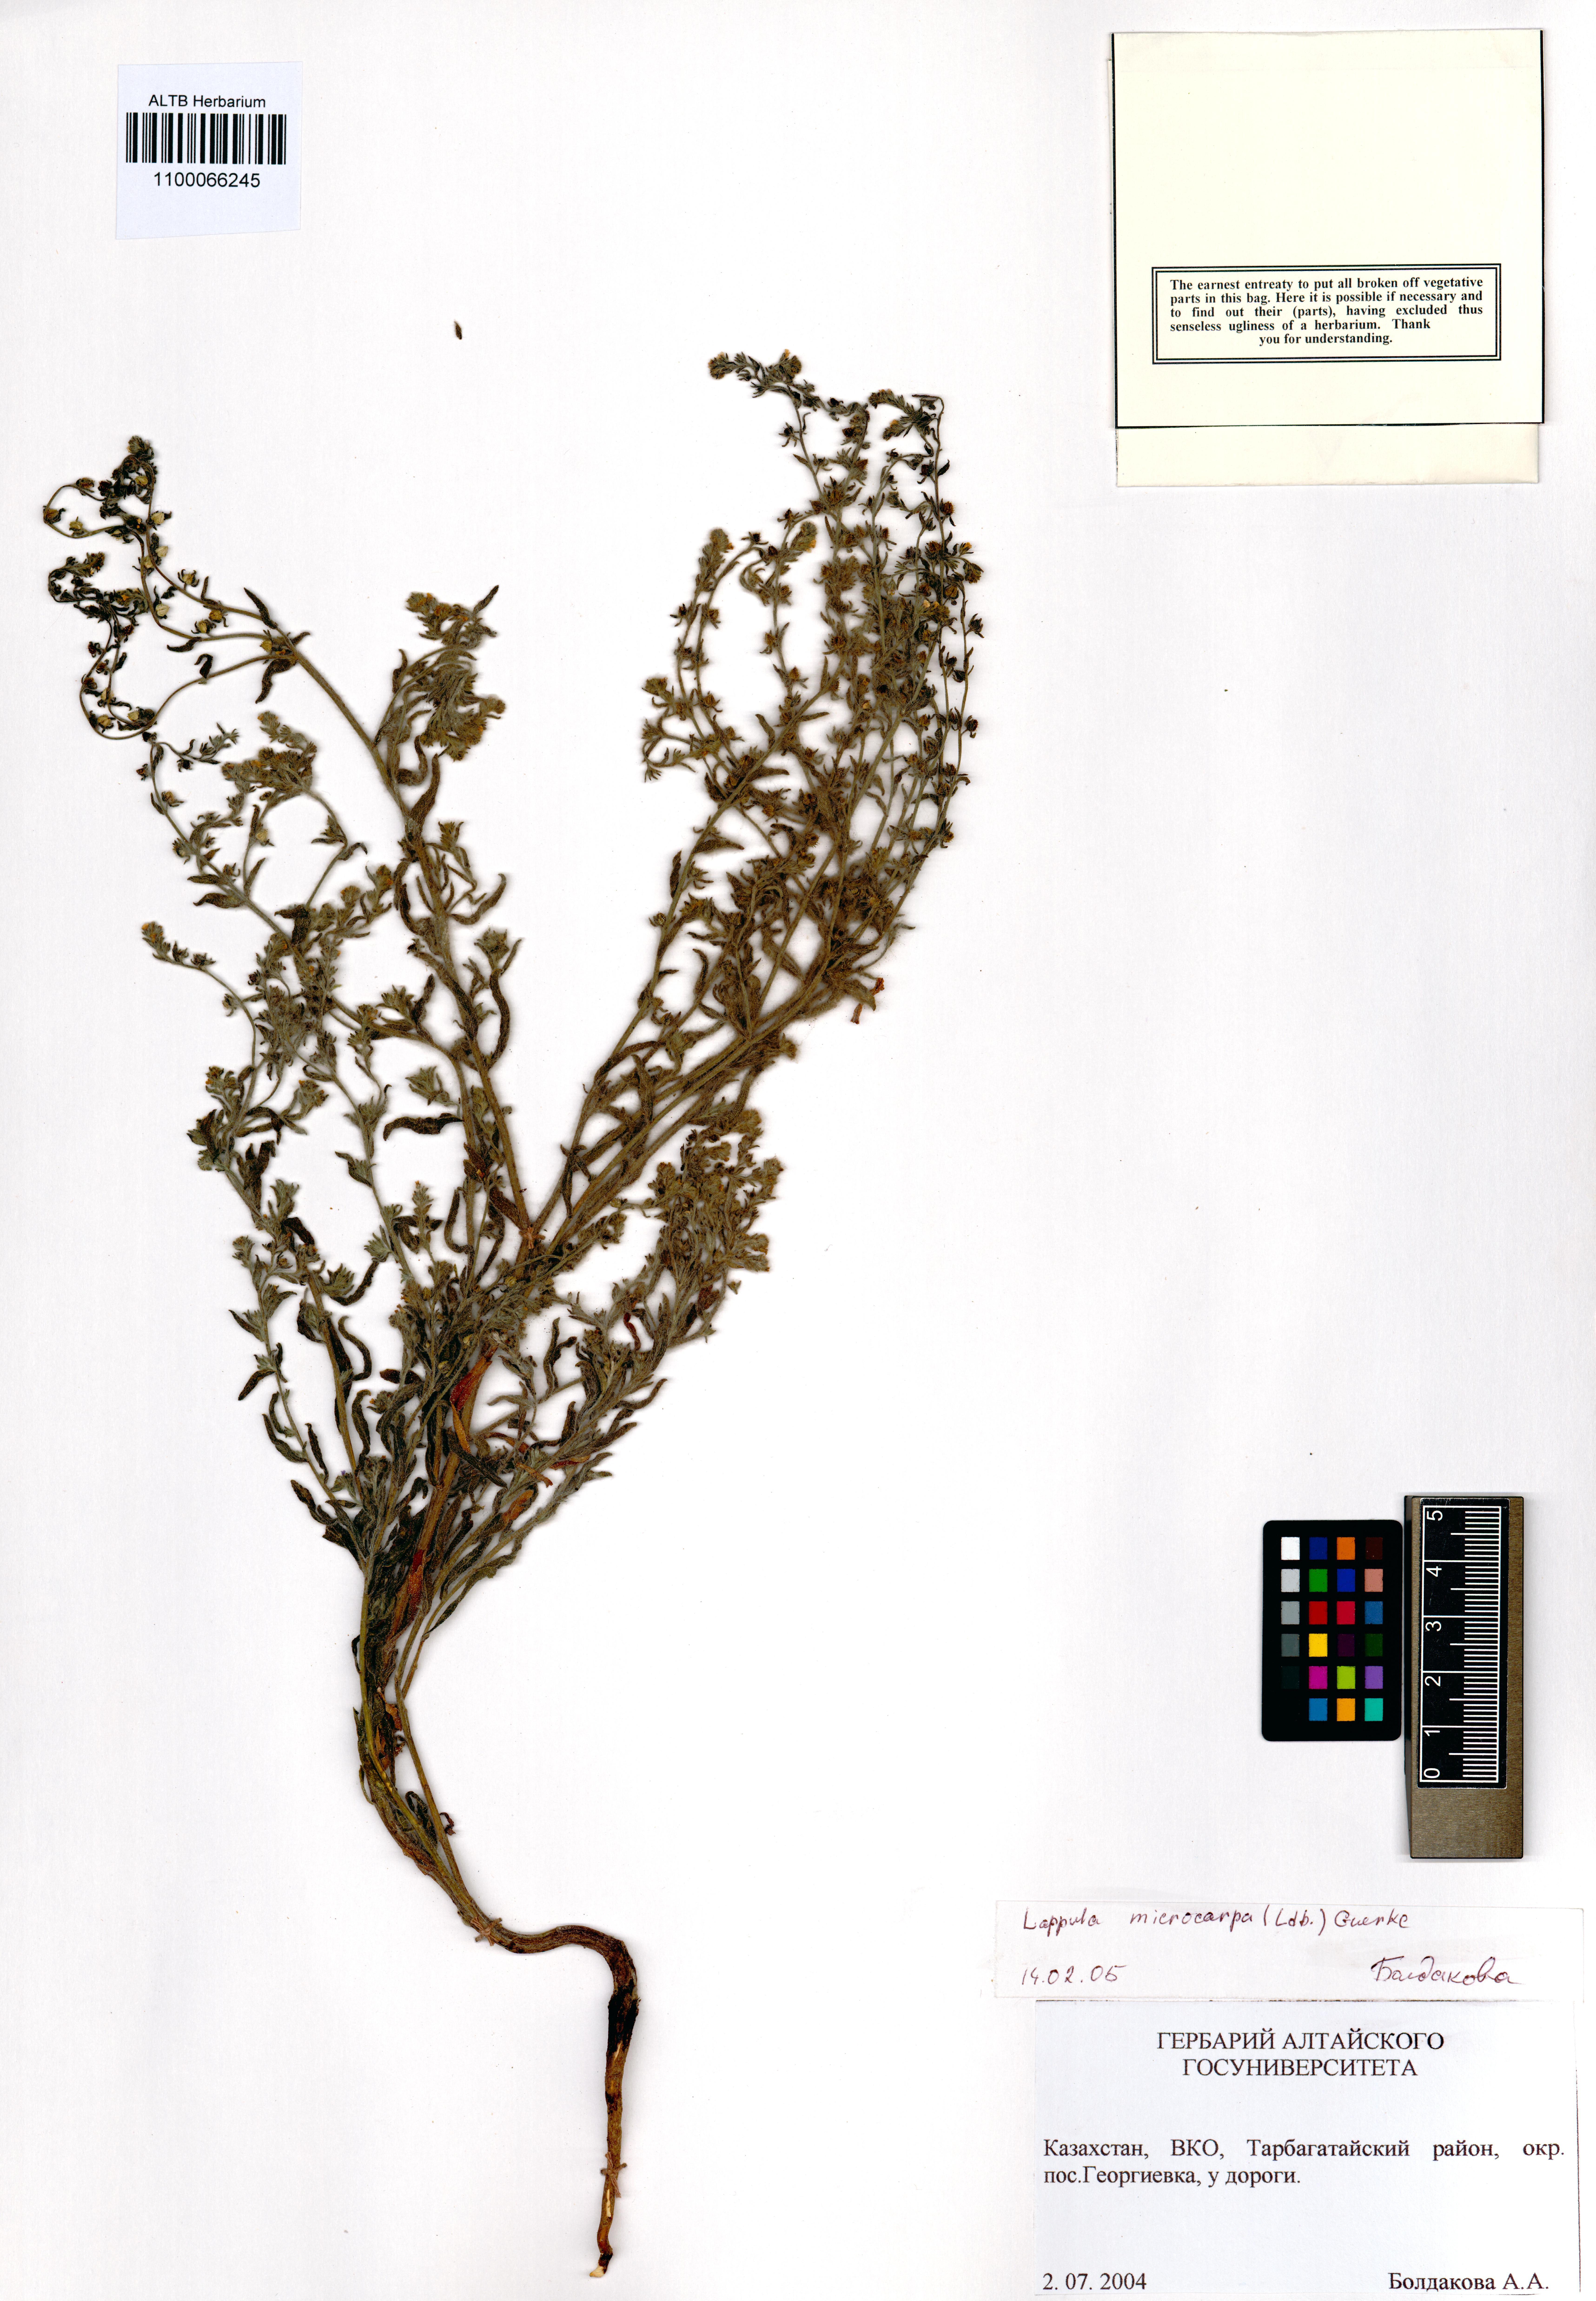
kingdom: Plantae
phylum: Tracheophyta
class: Magnoliopsida
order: Boraginales
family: Boraginaceae
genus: Lappula
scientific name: Lappula microcarpa
